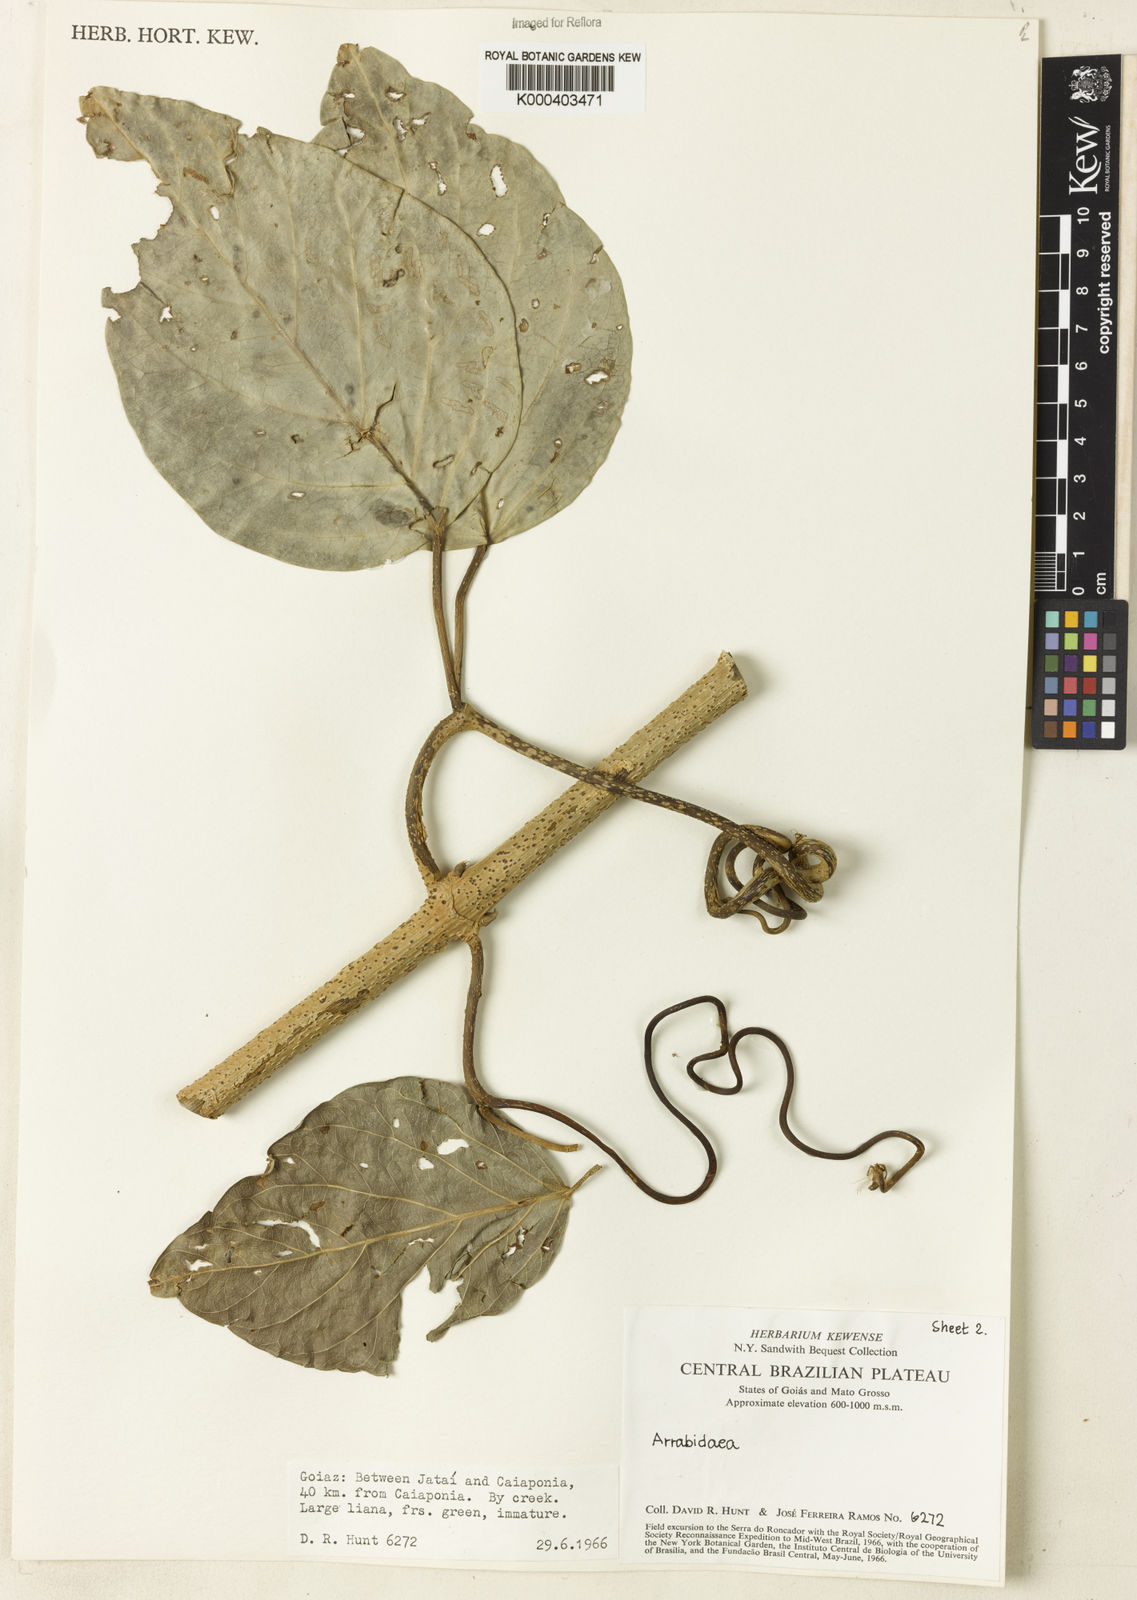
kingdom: Plantae
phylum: Tracheophyta
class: Magnoliopsida
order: Rosales
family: Rhamnaceae
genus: Arrabidaea
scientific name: Arrabidaea
